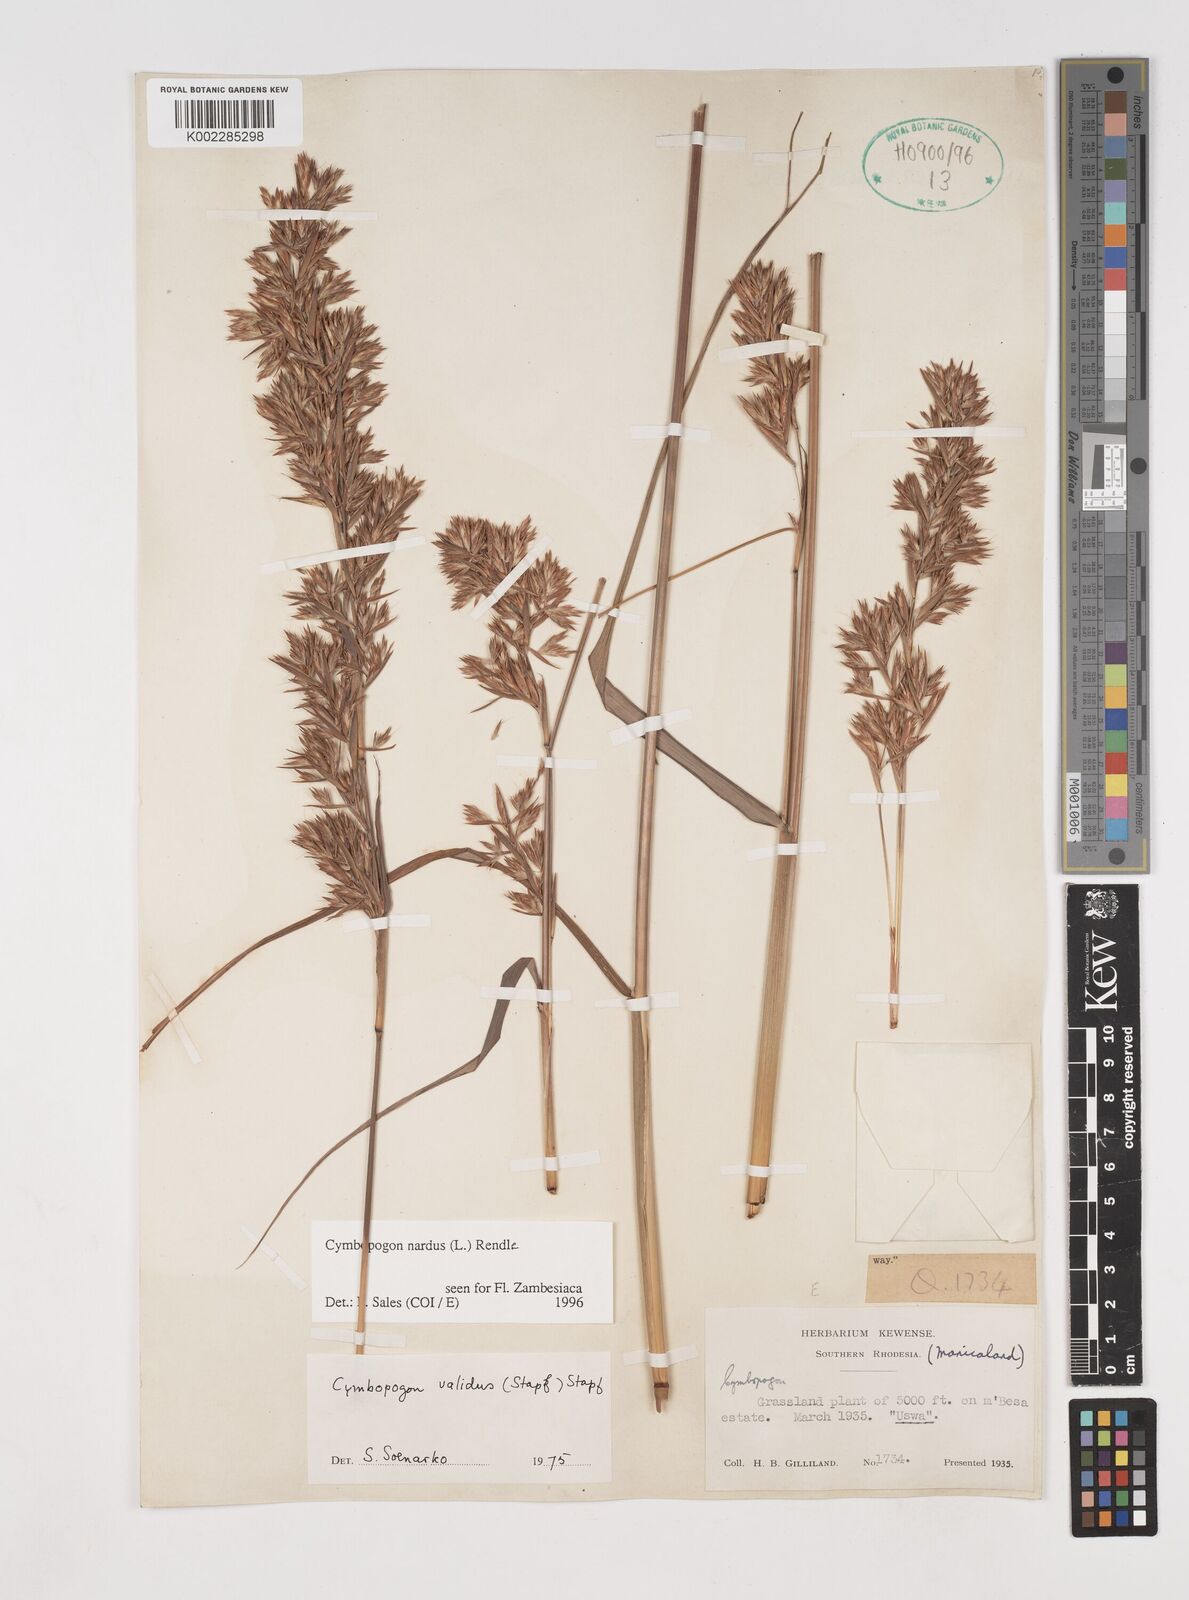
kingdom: Plantae
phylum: Tracheophyta
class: Liliopsida
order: Poales
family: Poaceae
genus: Cymbopogon
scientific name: Cymbopogon nardus
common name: Giant turpentine grass
